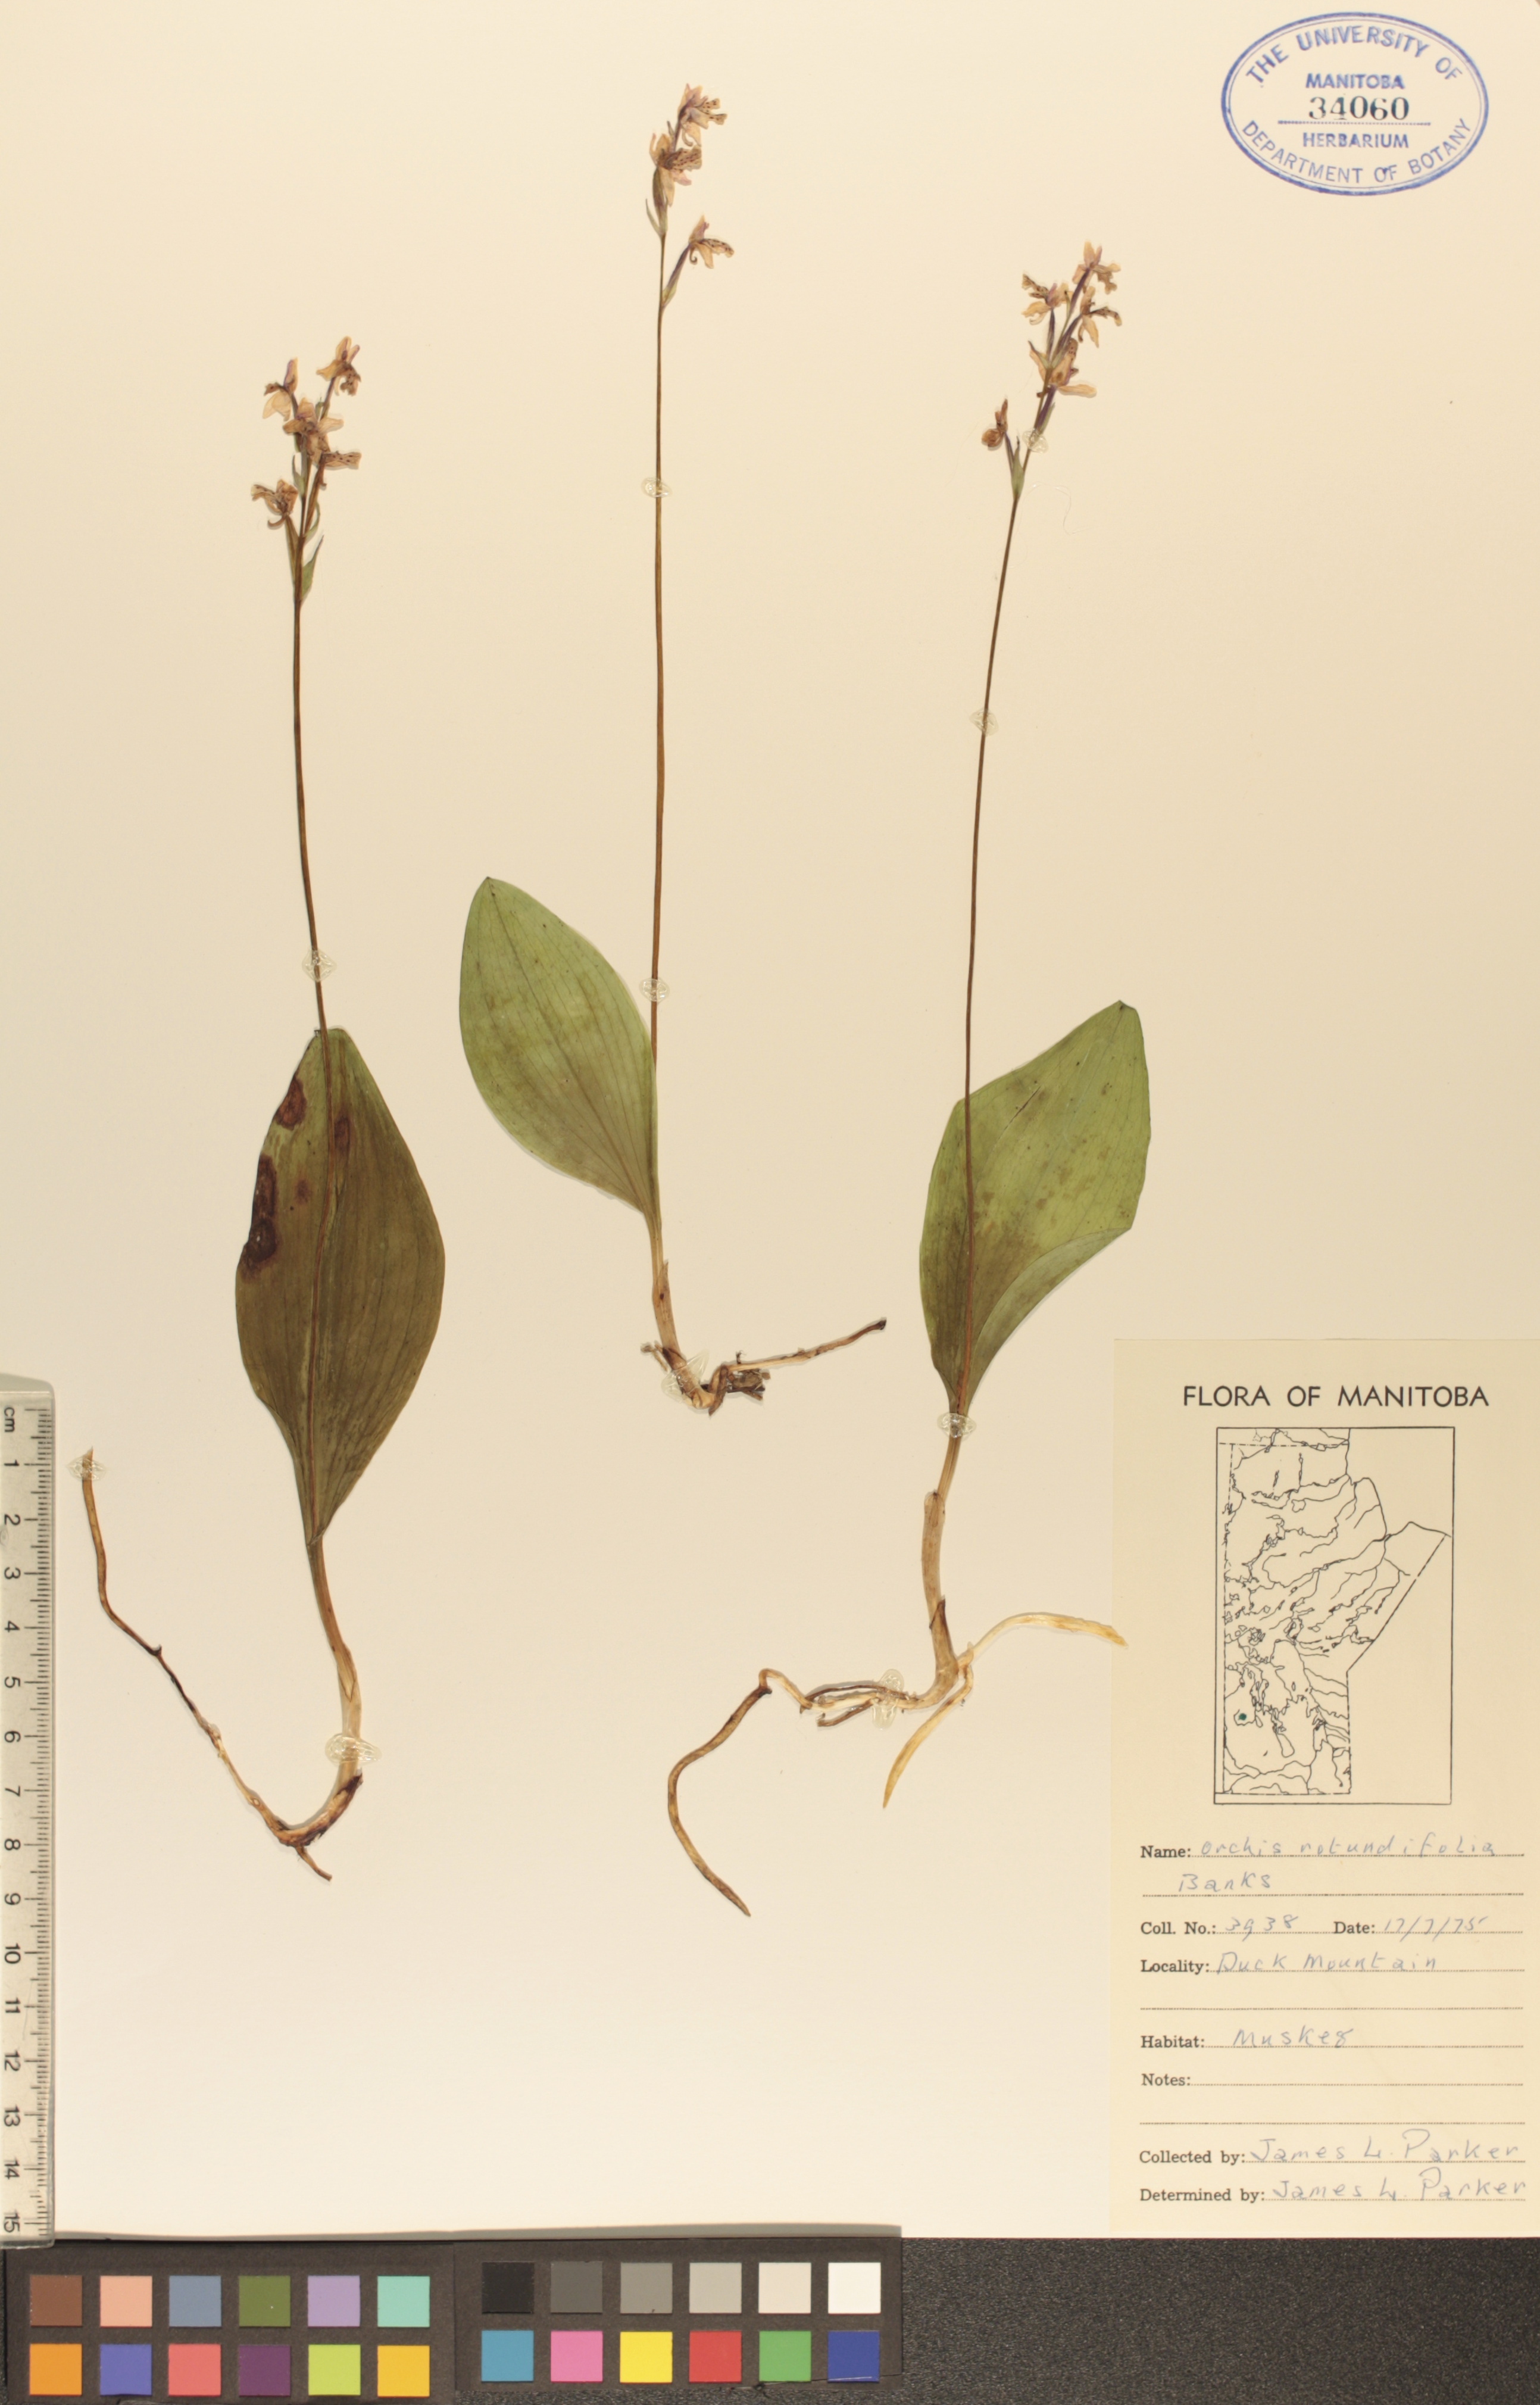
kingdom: Plantae
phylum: Tracheophyta
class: Liliopsida
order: Asparagales
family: Orchidaceae
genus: Galearis
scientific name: Galearis rotundifolia
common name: One-leaved orchis
